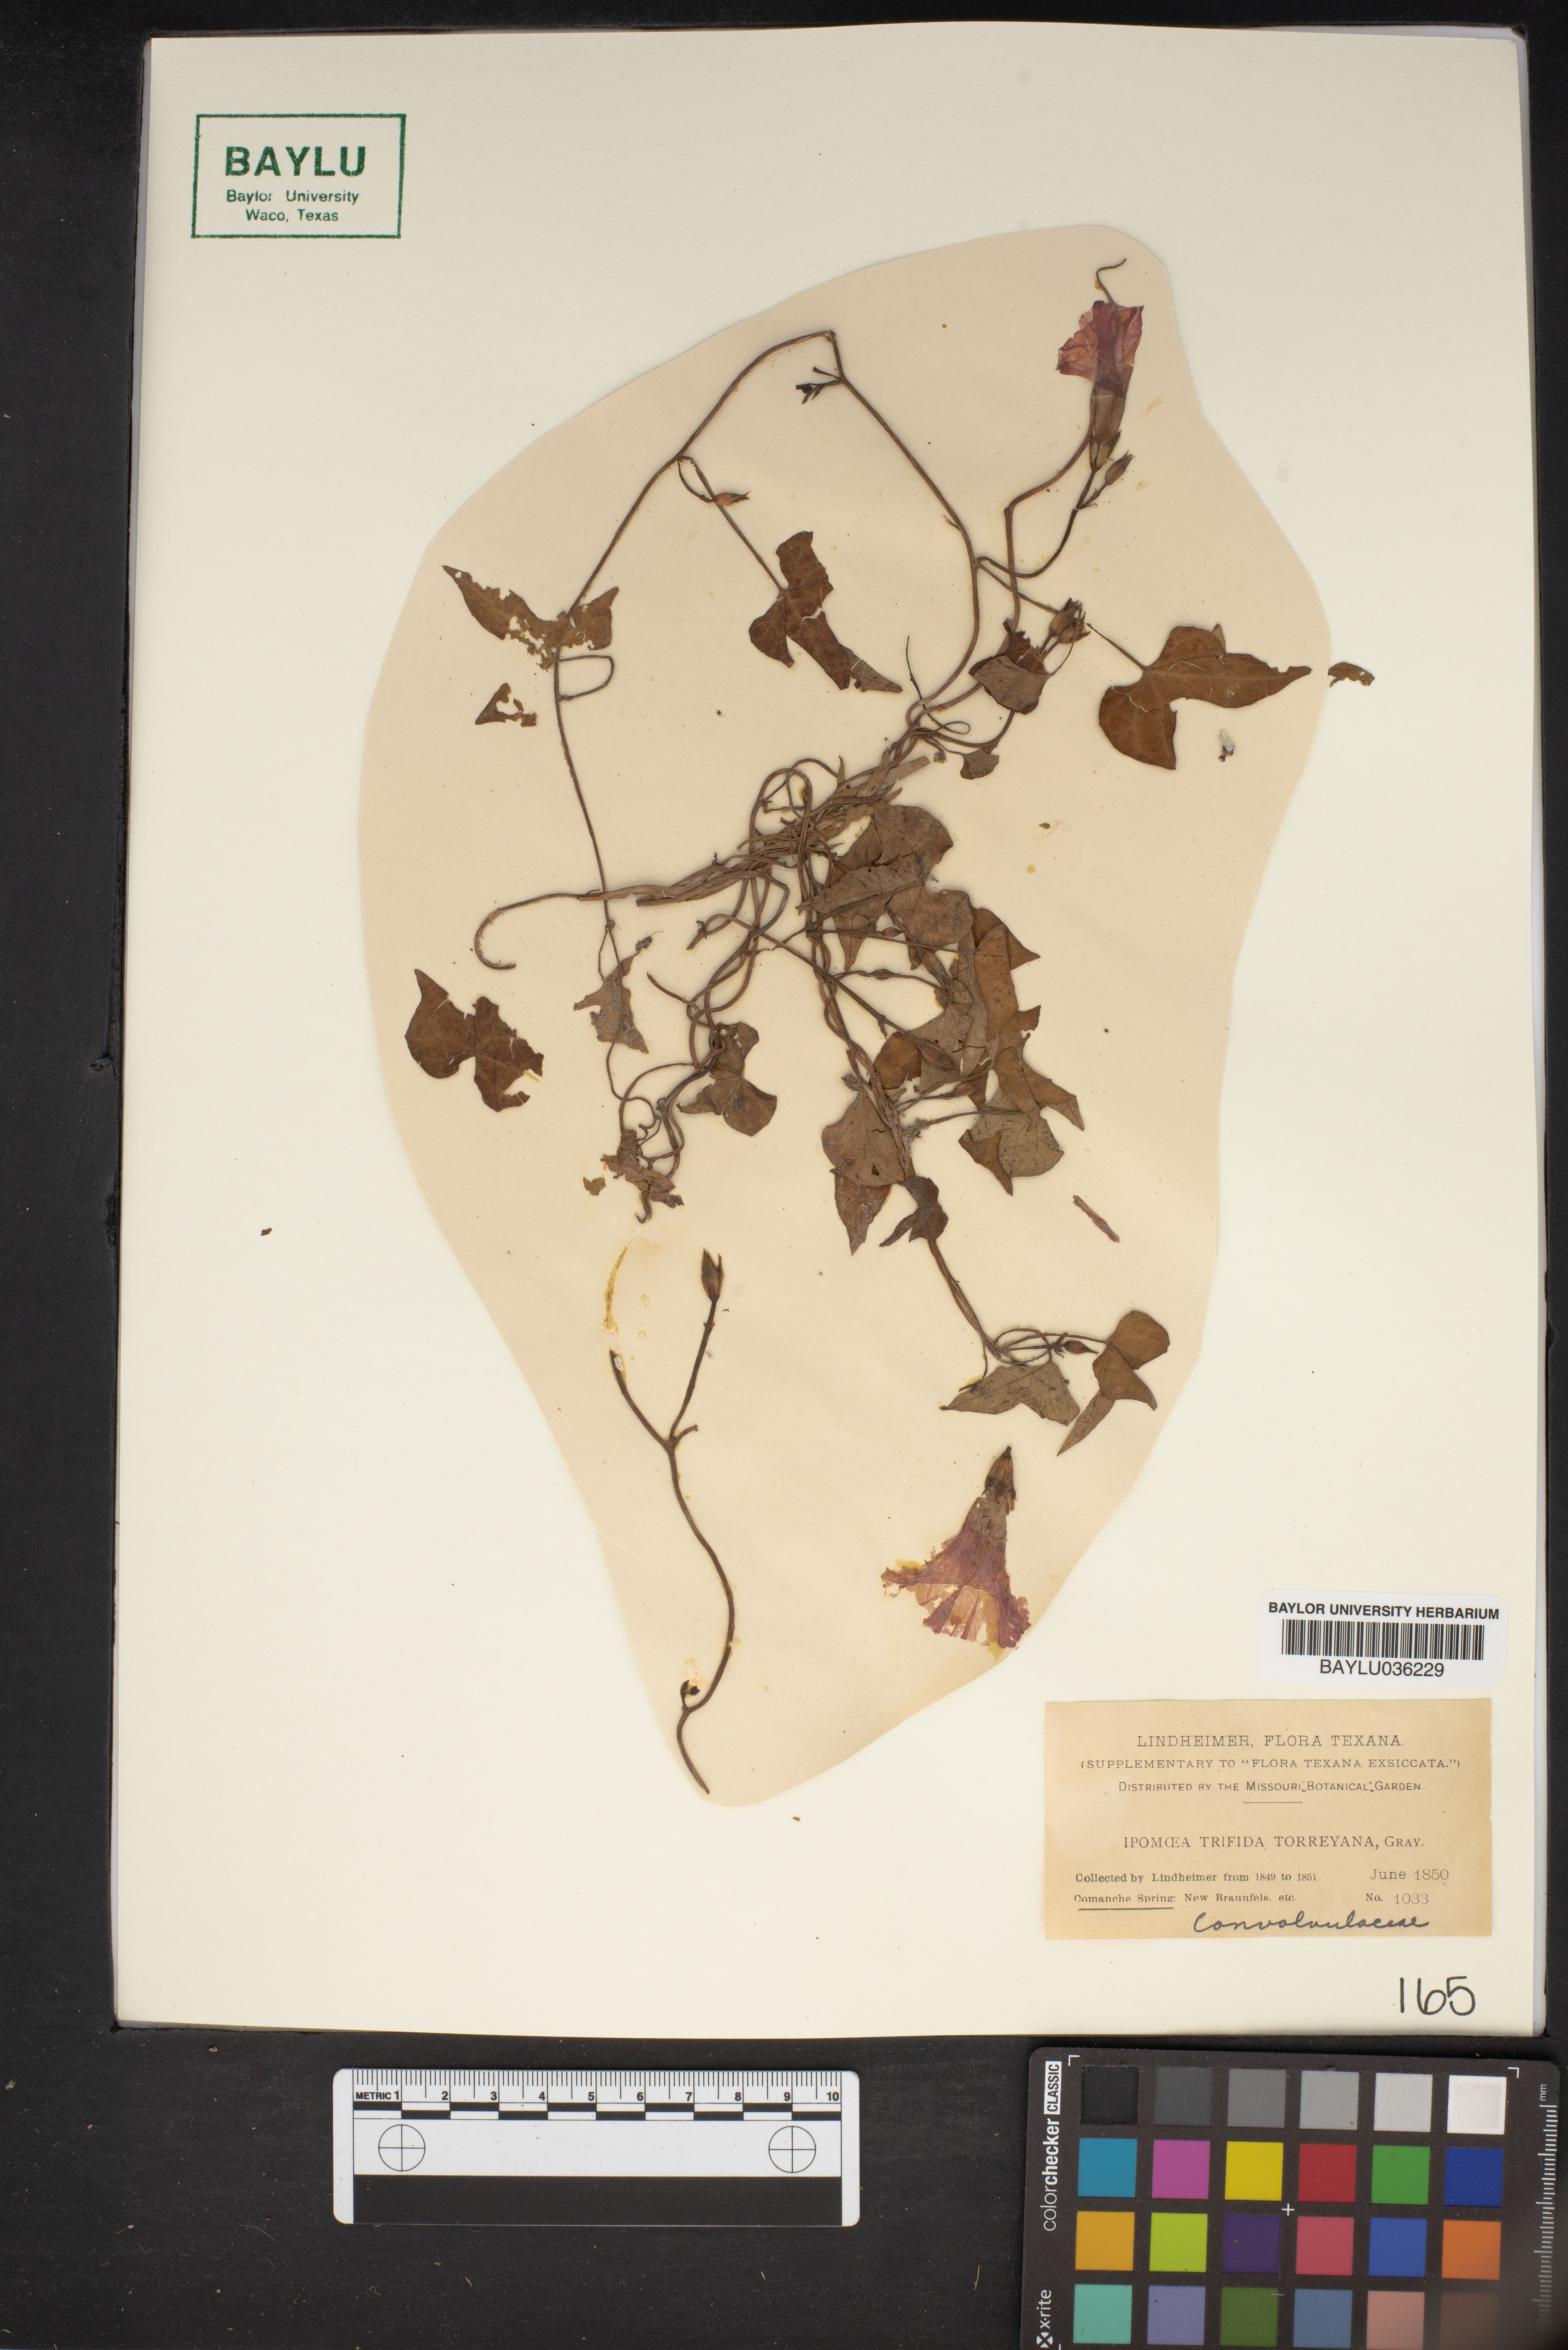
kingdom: Plantae
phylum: Tracheophyta
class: Magnoliopsida
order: Solanales
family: Convolvulaceae
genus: Ipomoea
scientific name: Ipomoea cordatotriloba
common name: Cotton morning glory
